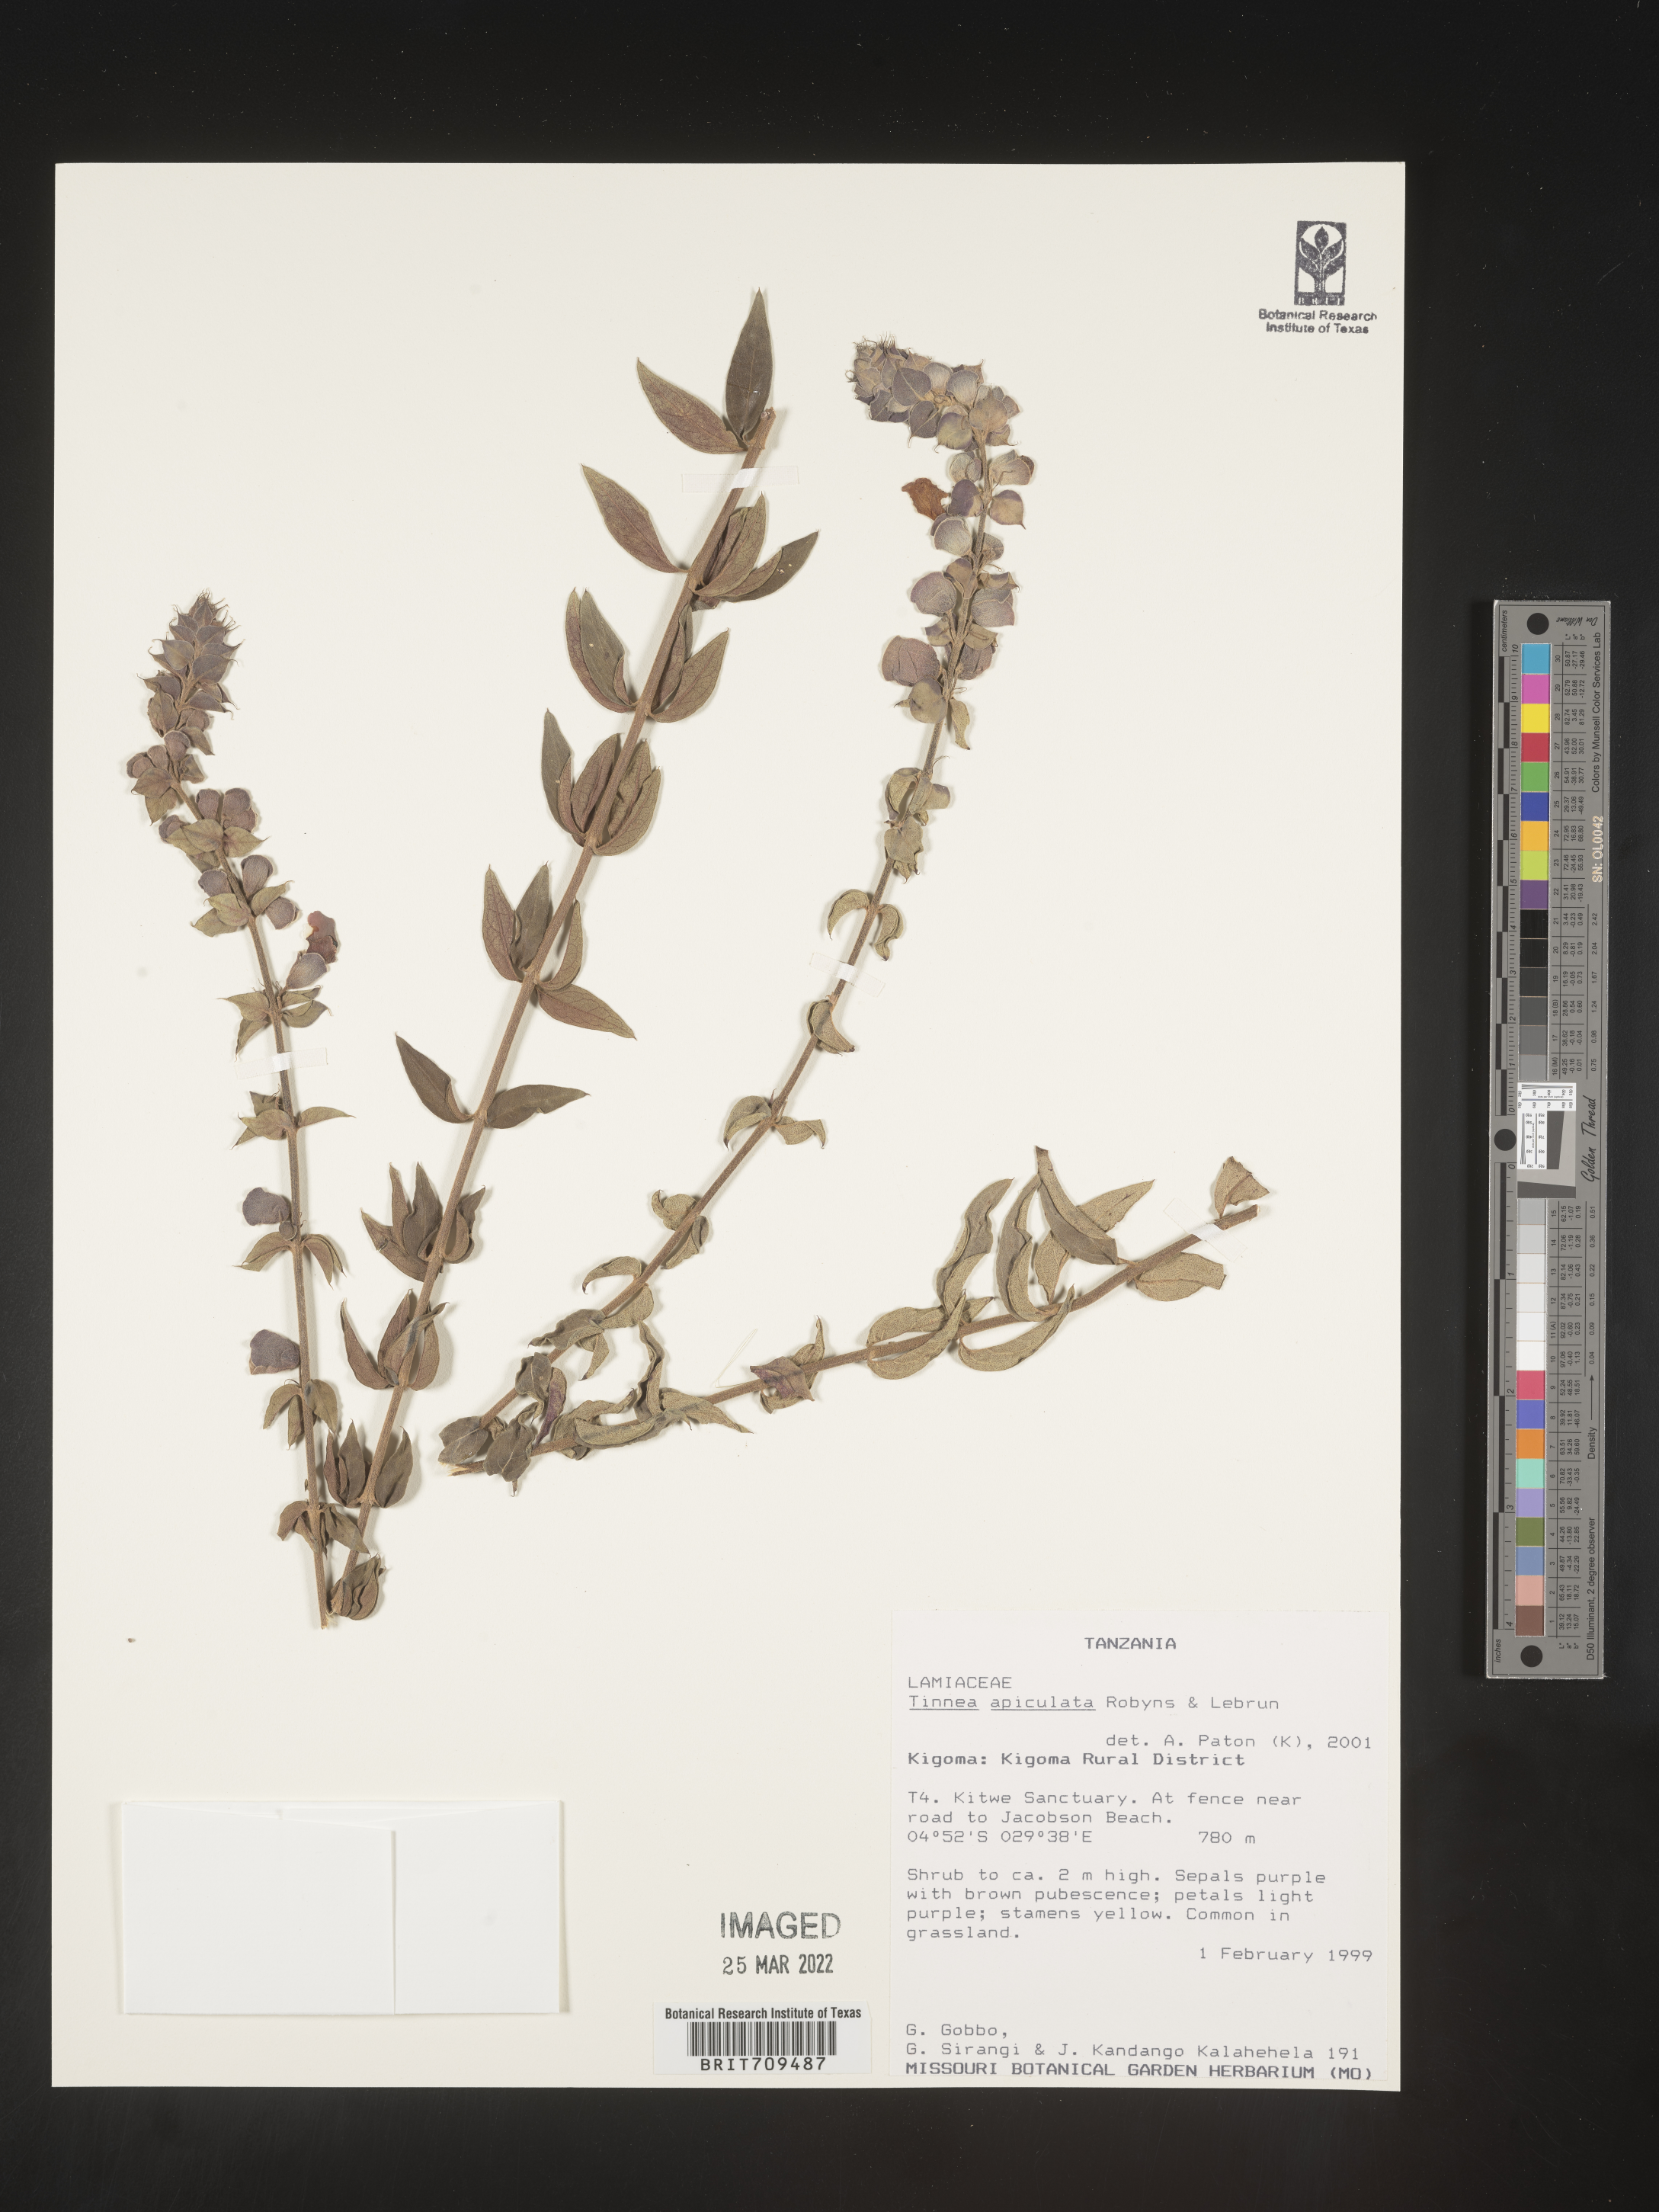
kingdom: Plantae
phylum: Tracheophyta
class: Magnoliopsida
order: Lamiales
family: Lamiaceae
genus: Tinnea
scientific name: Tinnea
